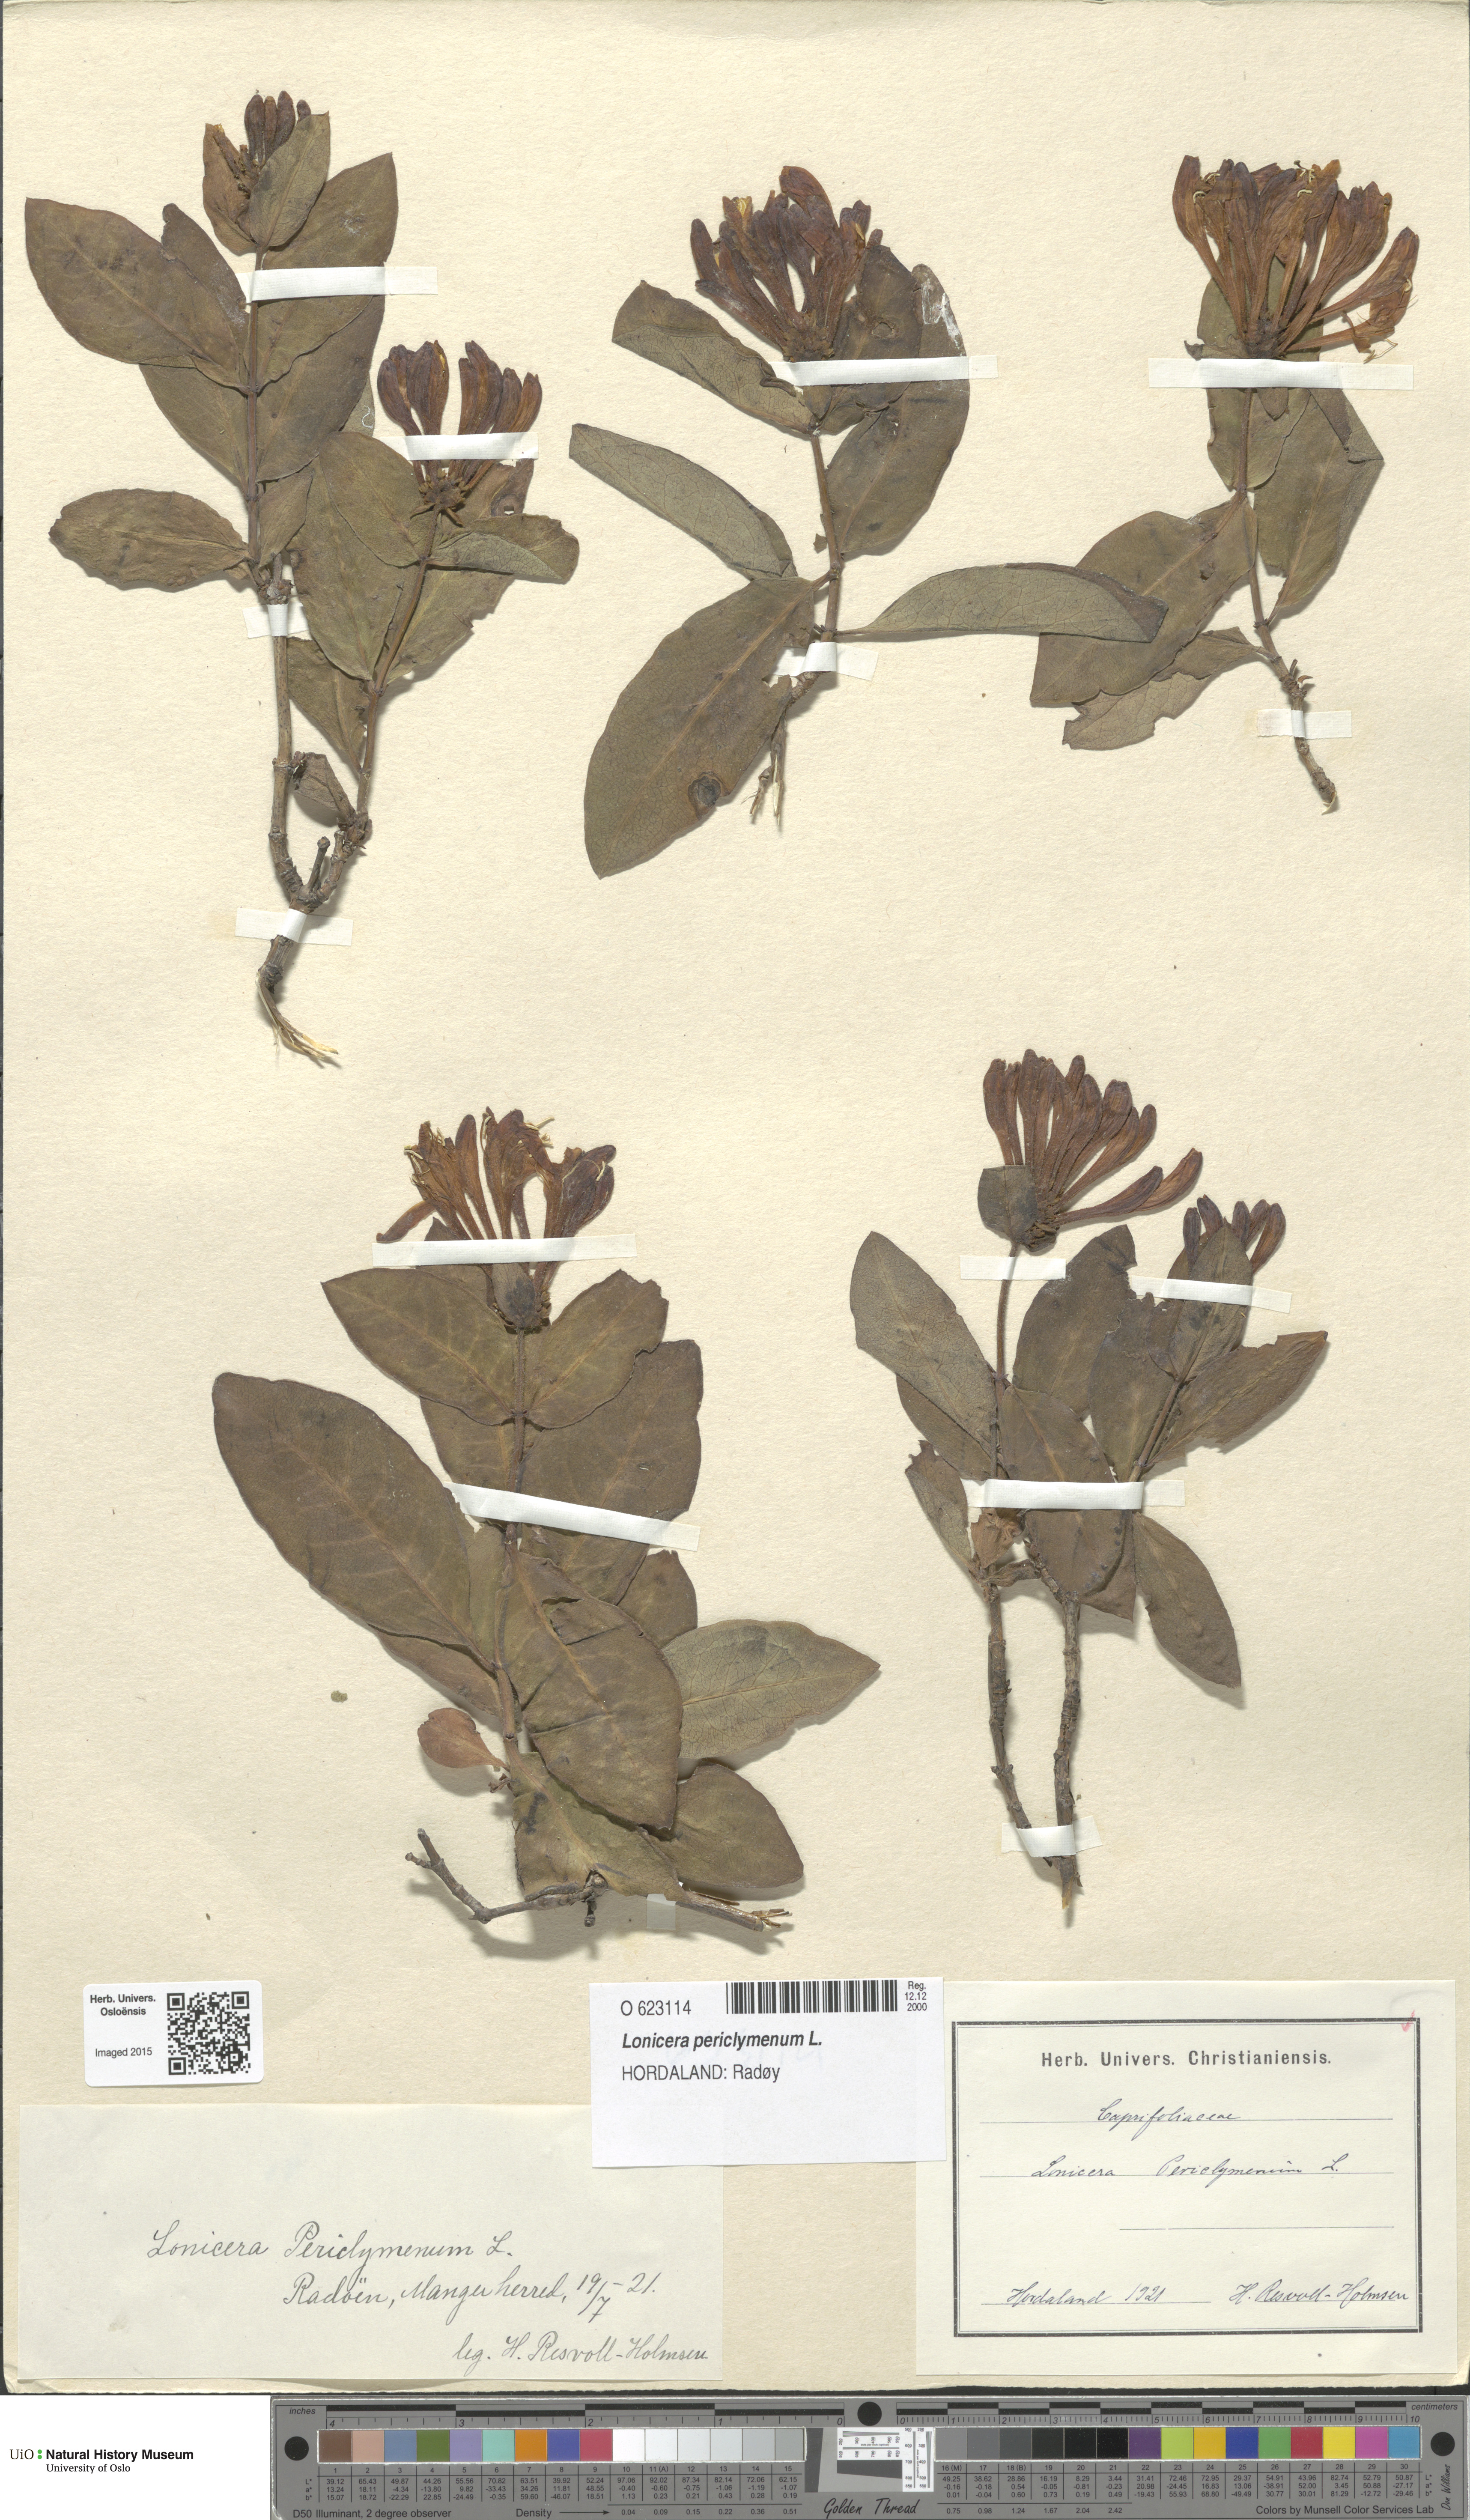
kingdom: Plantae
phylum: Tracheophyta
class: Magnoliopsida
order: Dipsacales
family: Caprifoliaceae
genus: Lonicera
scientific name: Lonicera periclymenum
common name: European honeysuckle
